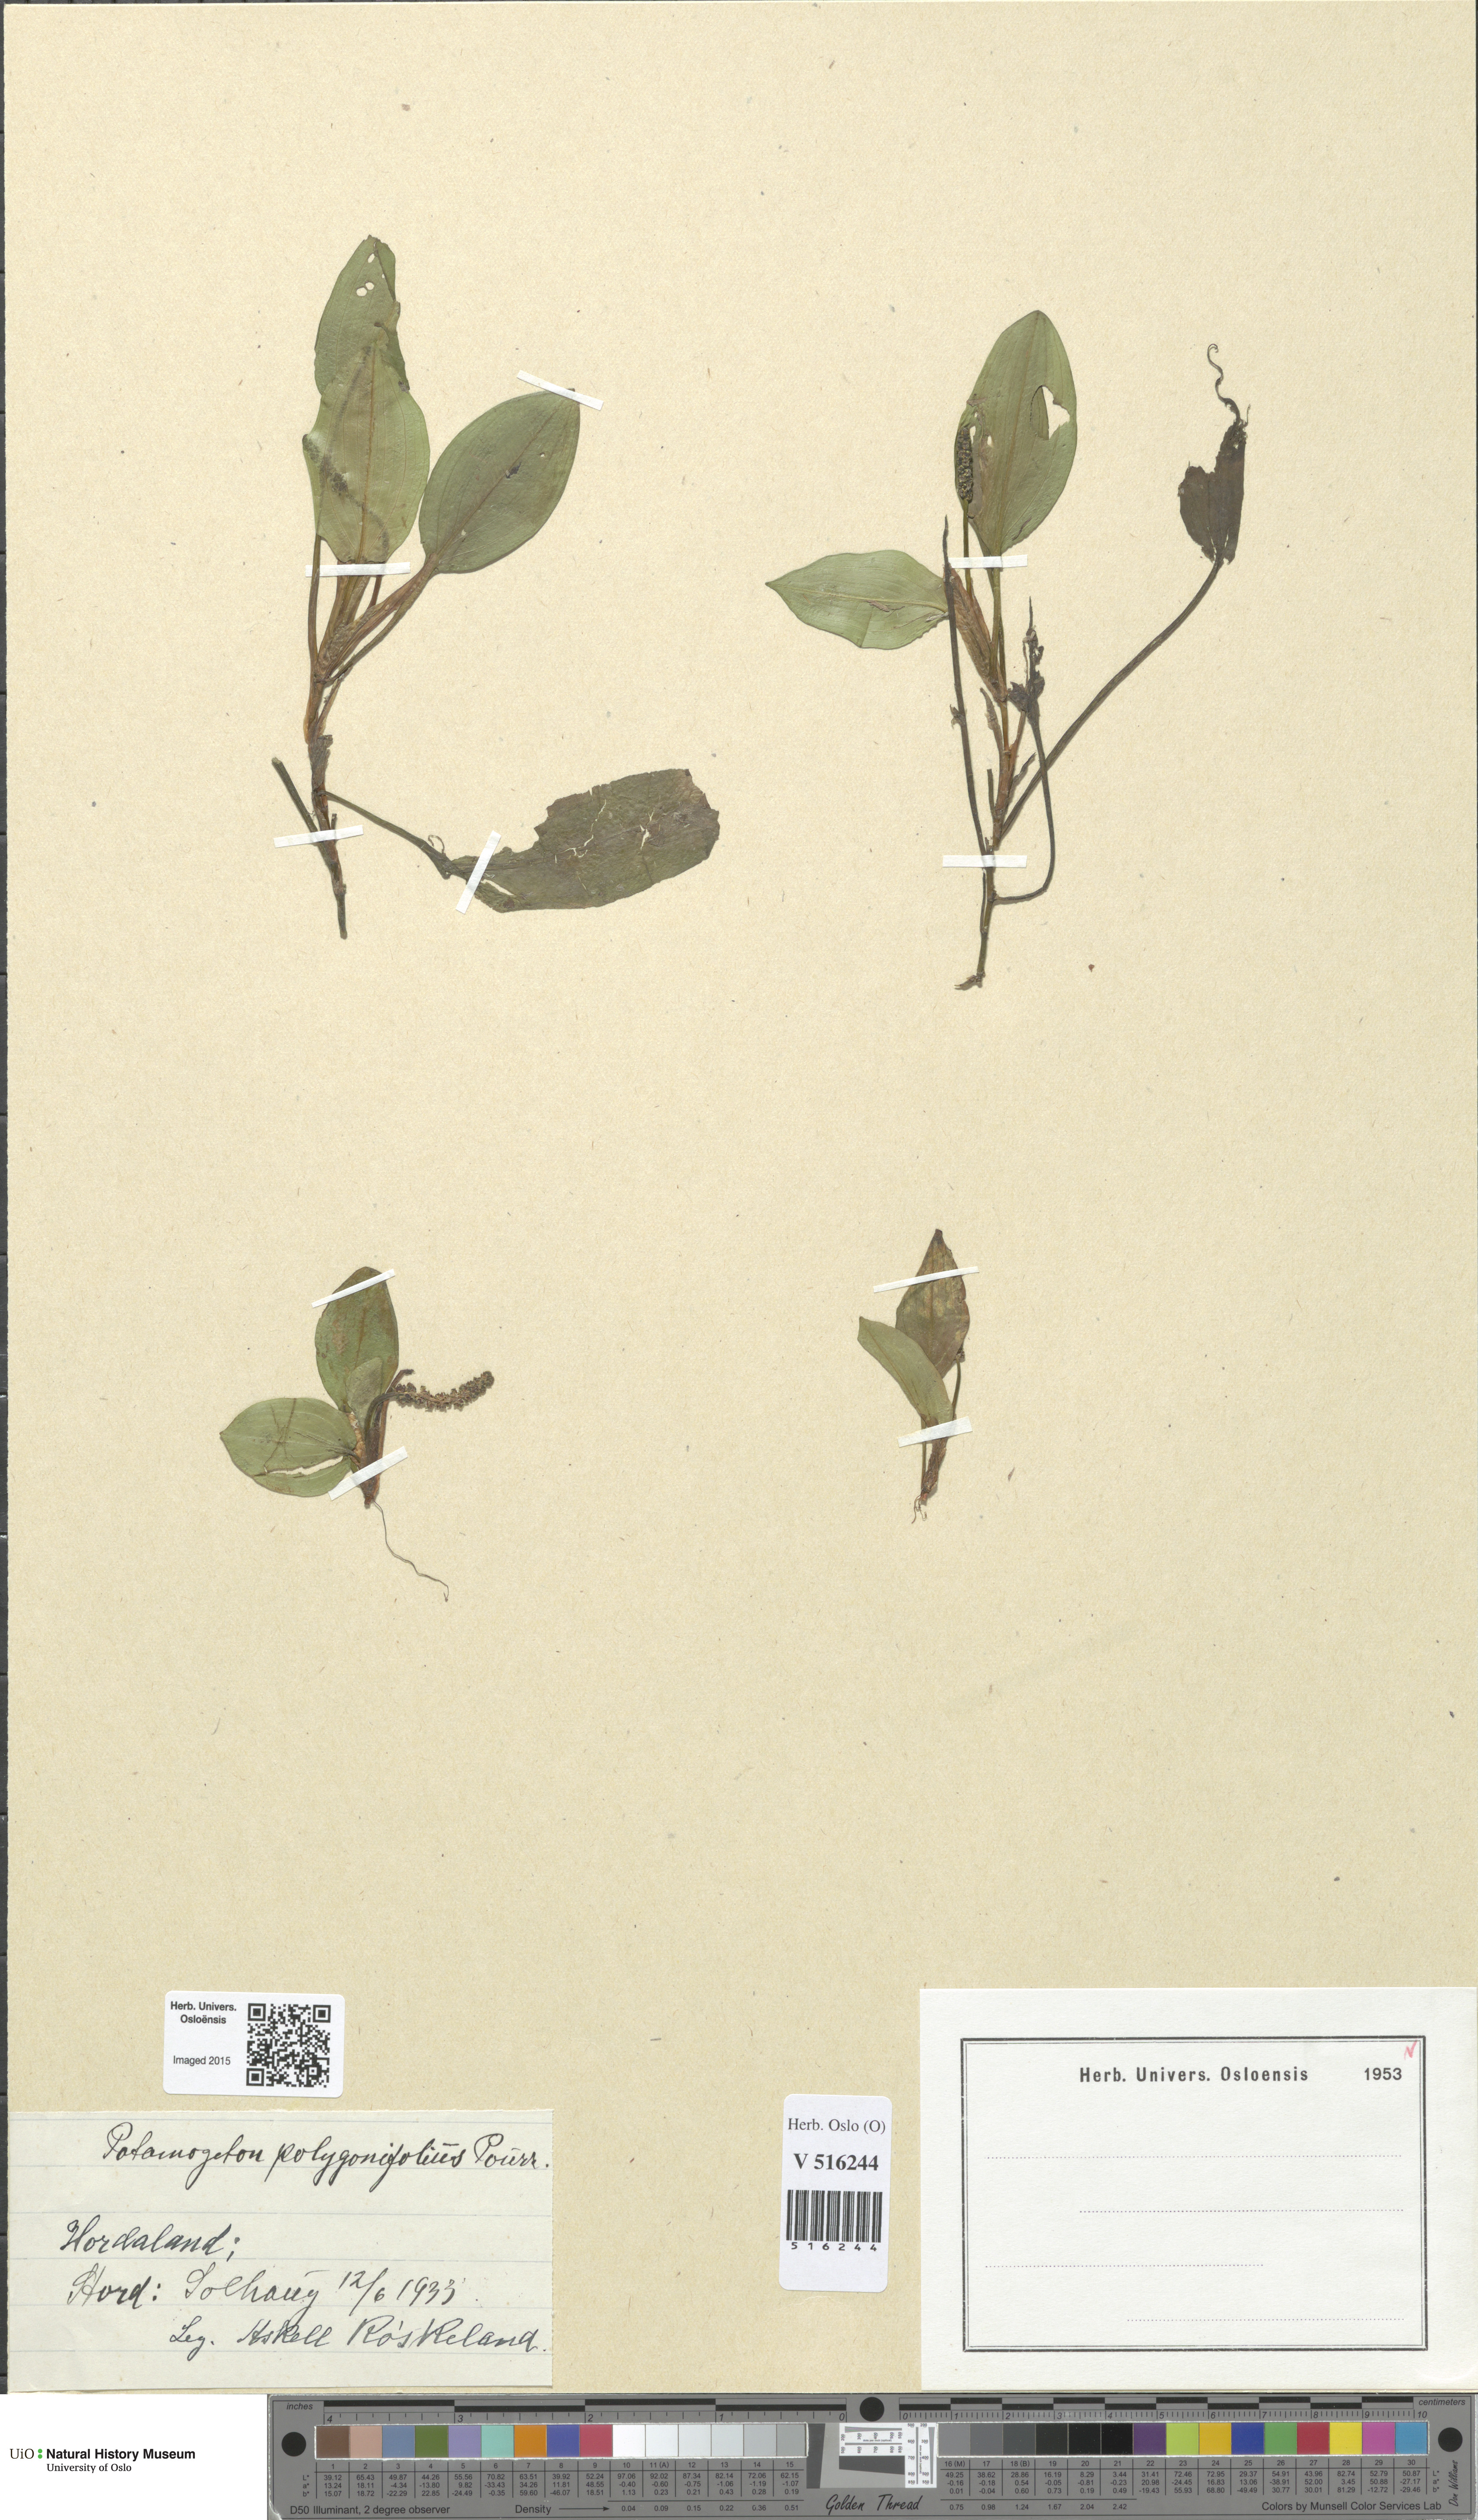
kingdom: Plantae
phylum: Tracheophyta
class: Liliopsida
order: Alismatales
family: Potamogetonaceae
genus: Potamogeton
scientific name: Potamogeton polygonifolius
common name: Bog pondweed
